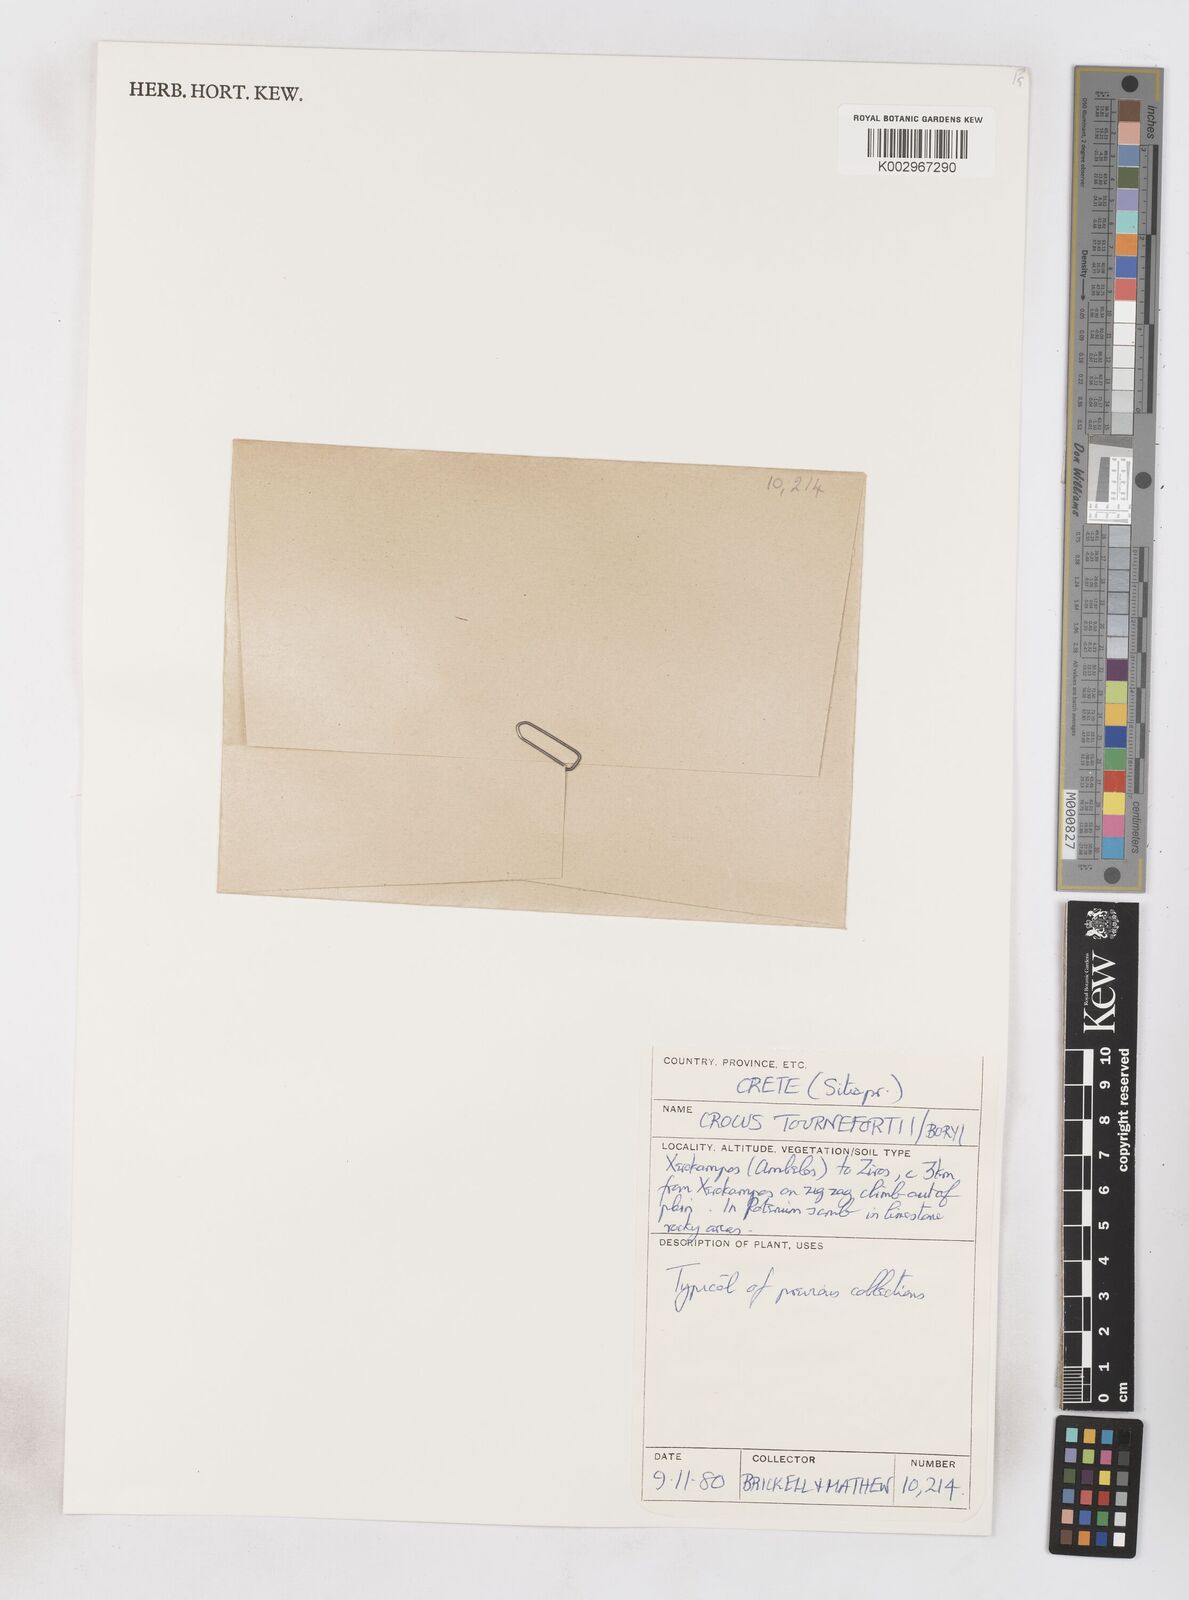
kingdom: Plantae
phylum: Tracheophyta
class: Liliopsida
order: Asparagales
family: Iridaceae
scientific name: Iridaceae
